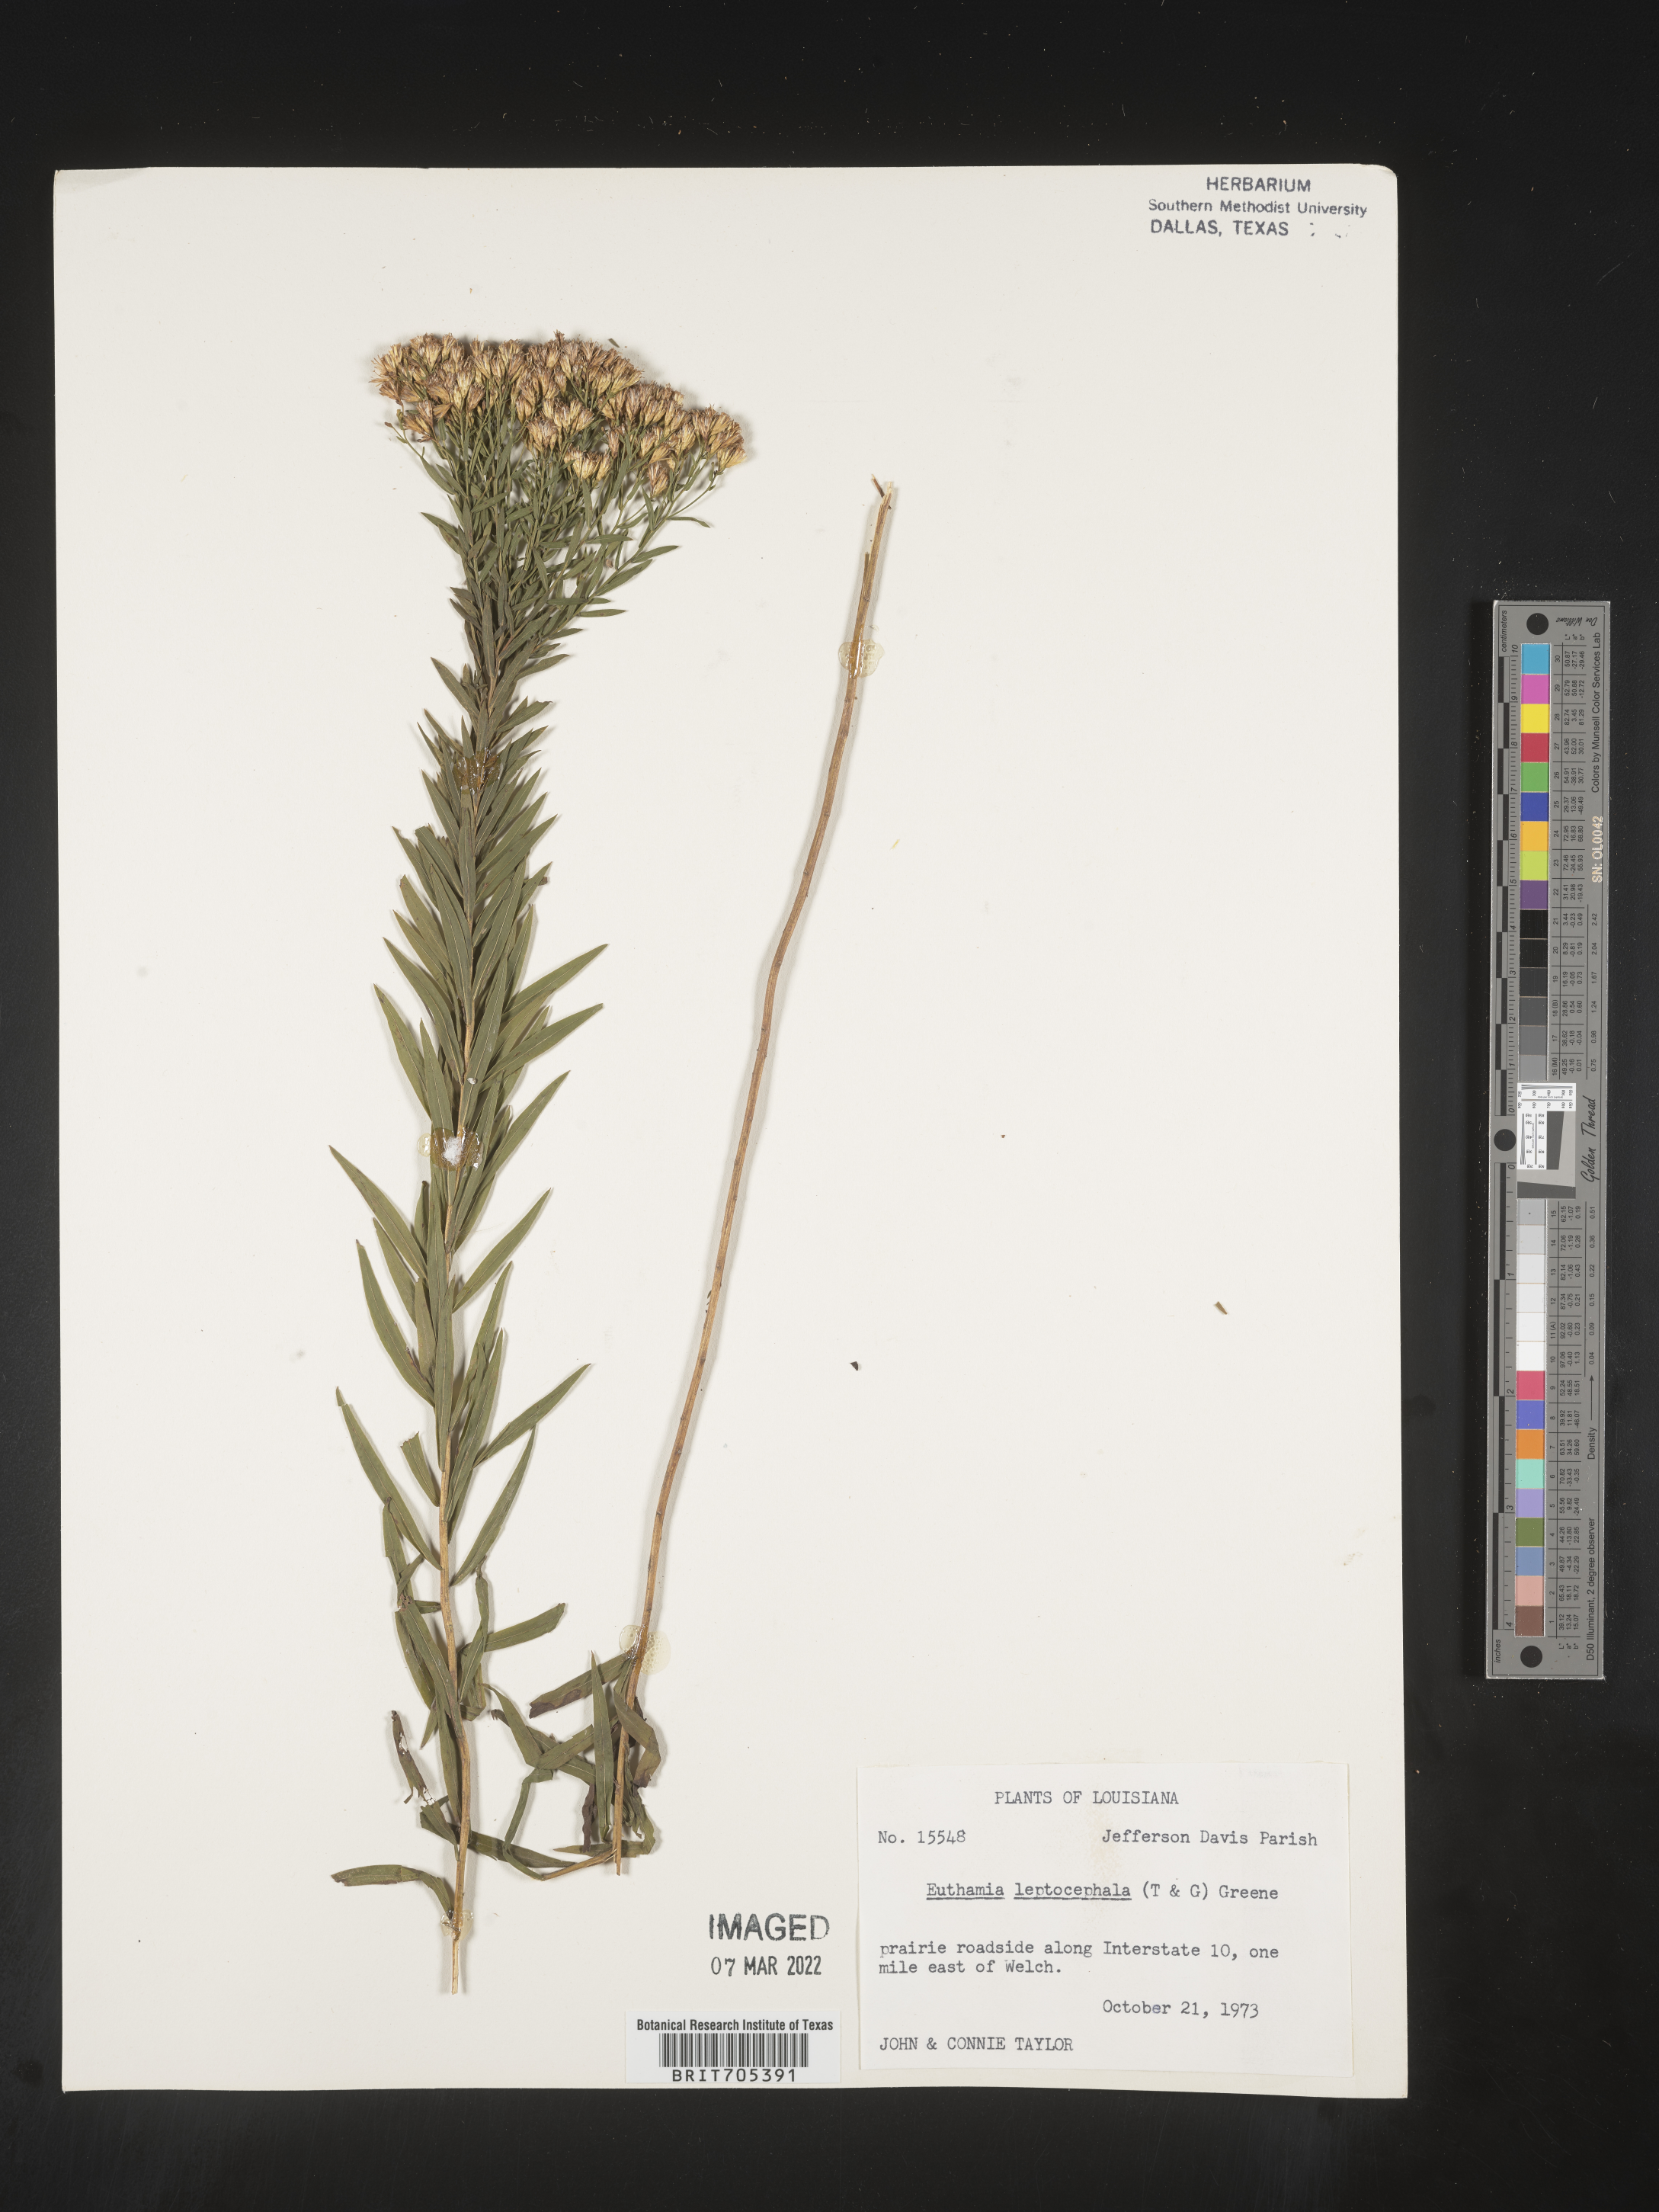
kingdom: Plantae
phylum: Tracheophyta
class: Magnoliopsida
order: Asterales
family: Asteraceae
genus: Euthamia
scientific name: Euthamia leptocephala
